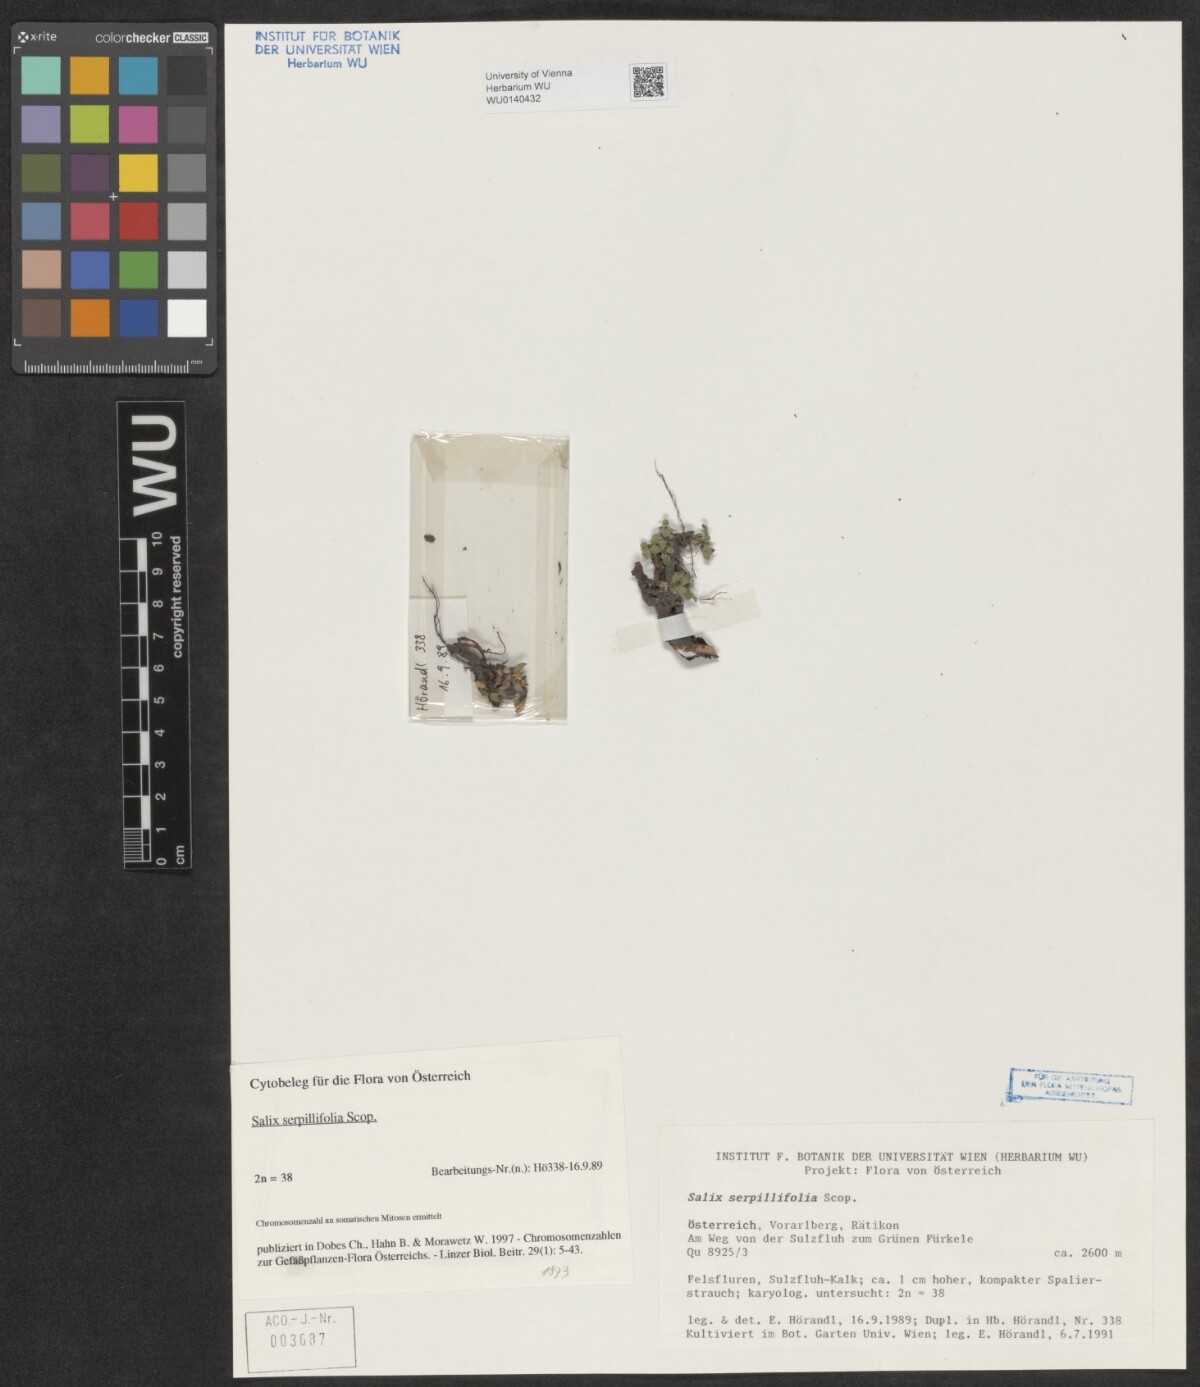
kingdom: Plantae
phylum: Tracheophyta
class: Magnoliopsida
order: Malpighiales
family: Salicaceae
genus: Salix
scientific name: Salix serpillifolia
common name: Thyme-leaf willow
